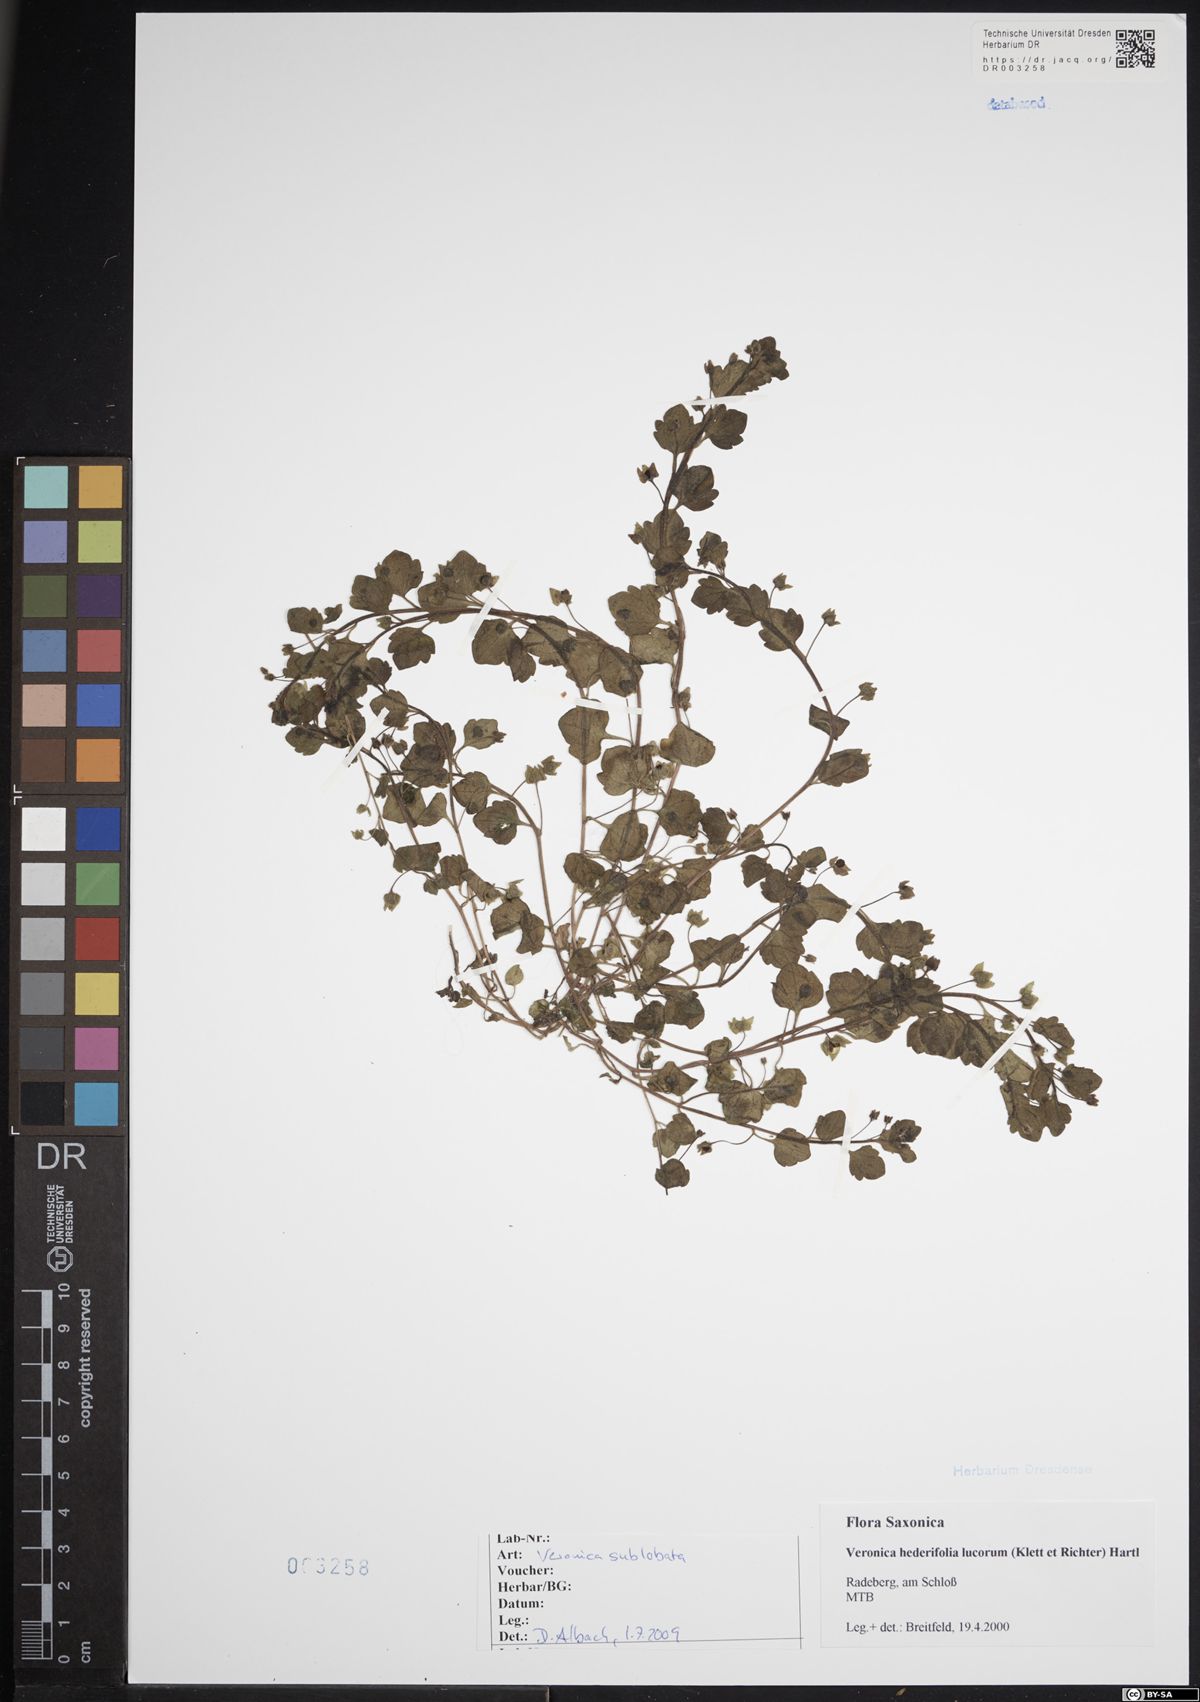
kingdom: Plantae
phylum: Tracheophyta
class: Magnoliopsida
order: Lamiales
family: Plantaginaceae
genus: Veronica
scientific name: Veronica sublobata
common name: False ivy-leaved speedwell
